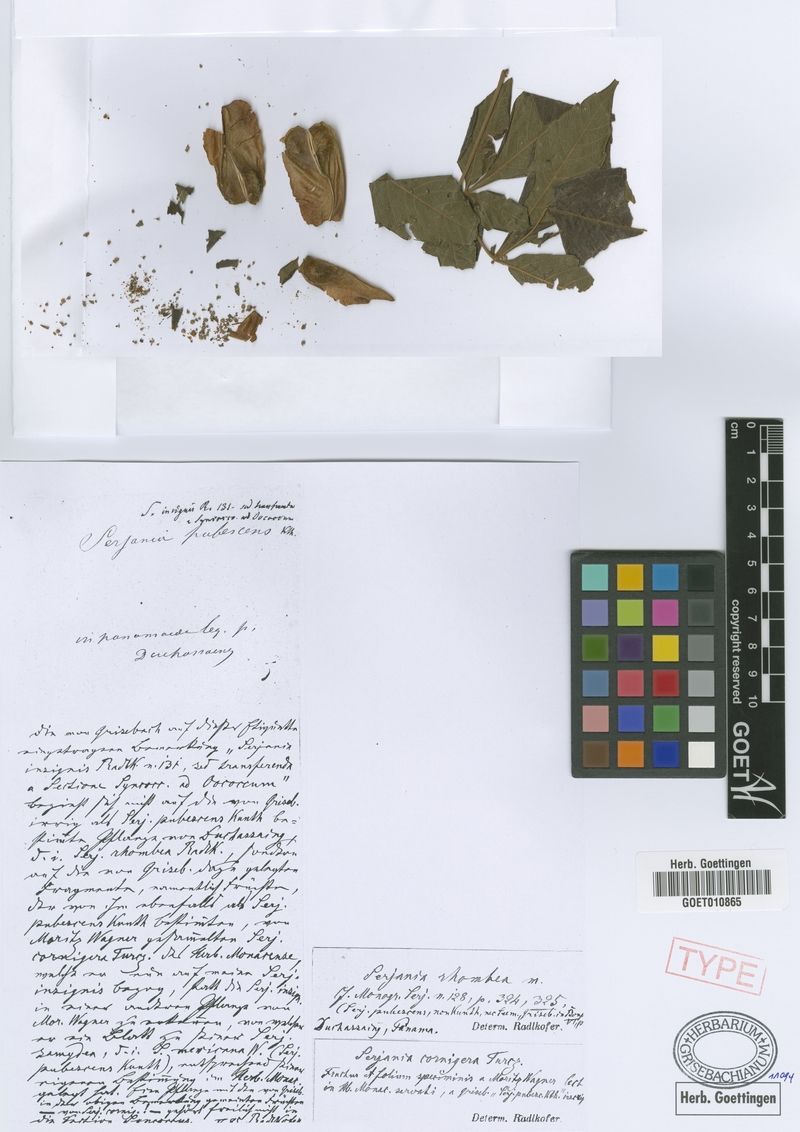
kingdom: Plantae
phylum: Tracheophyta
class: Magnoliopsida
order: Sapindales
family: Sapindaceae
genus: Serjania
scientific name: Serjania rhombea
